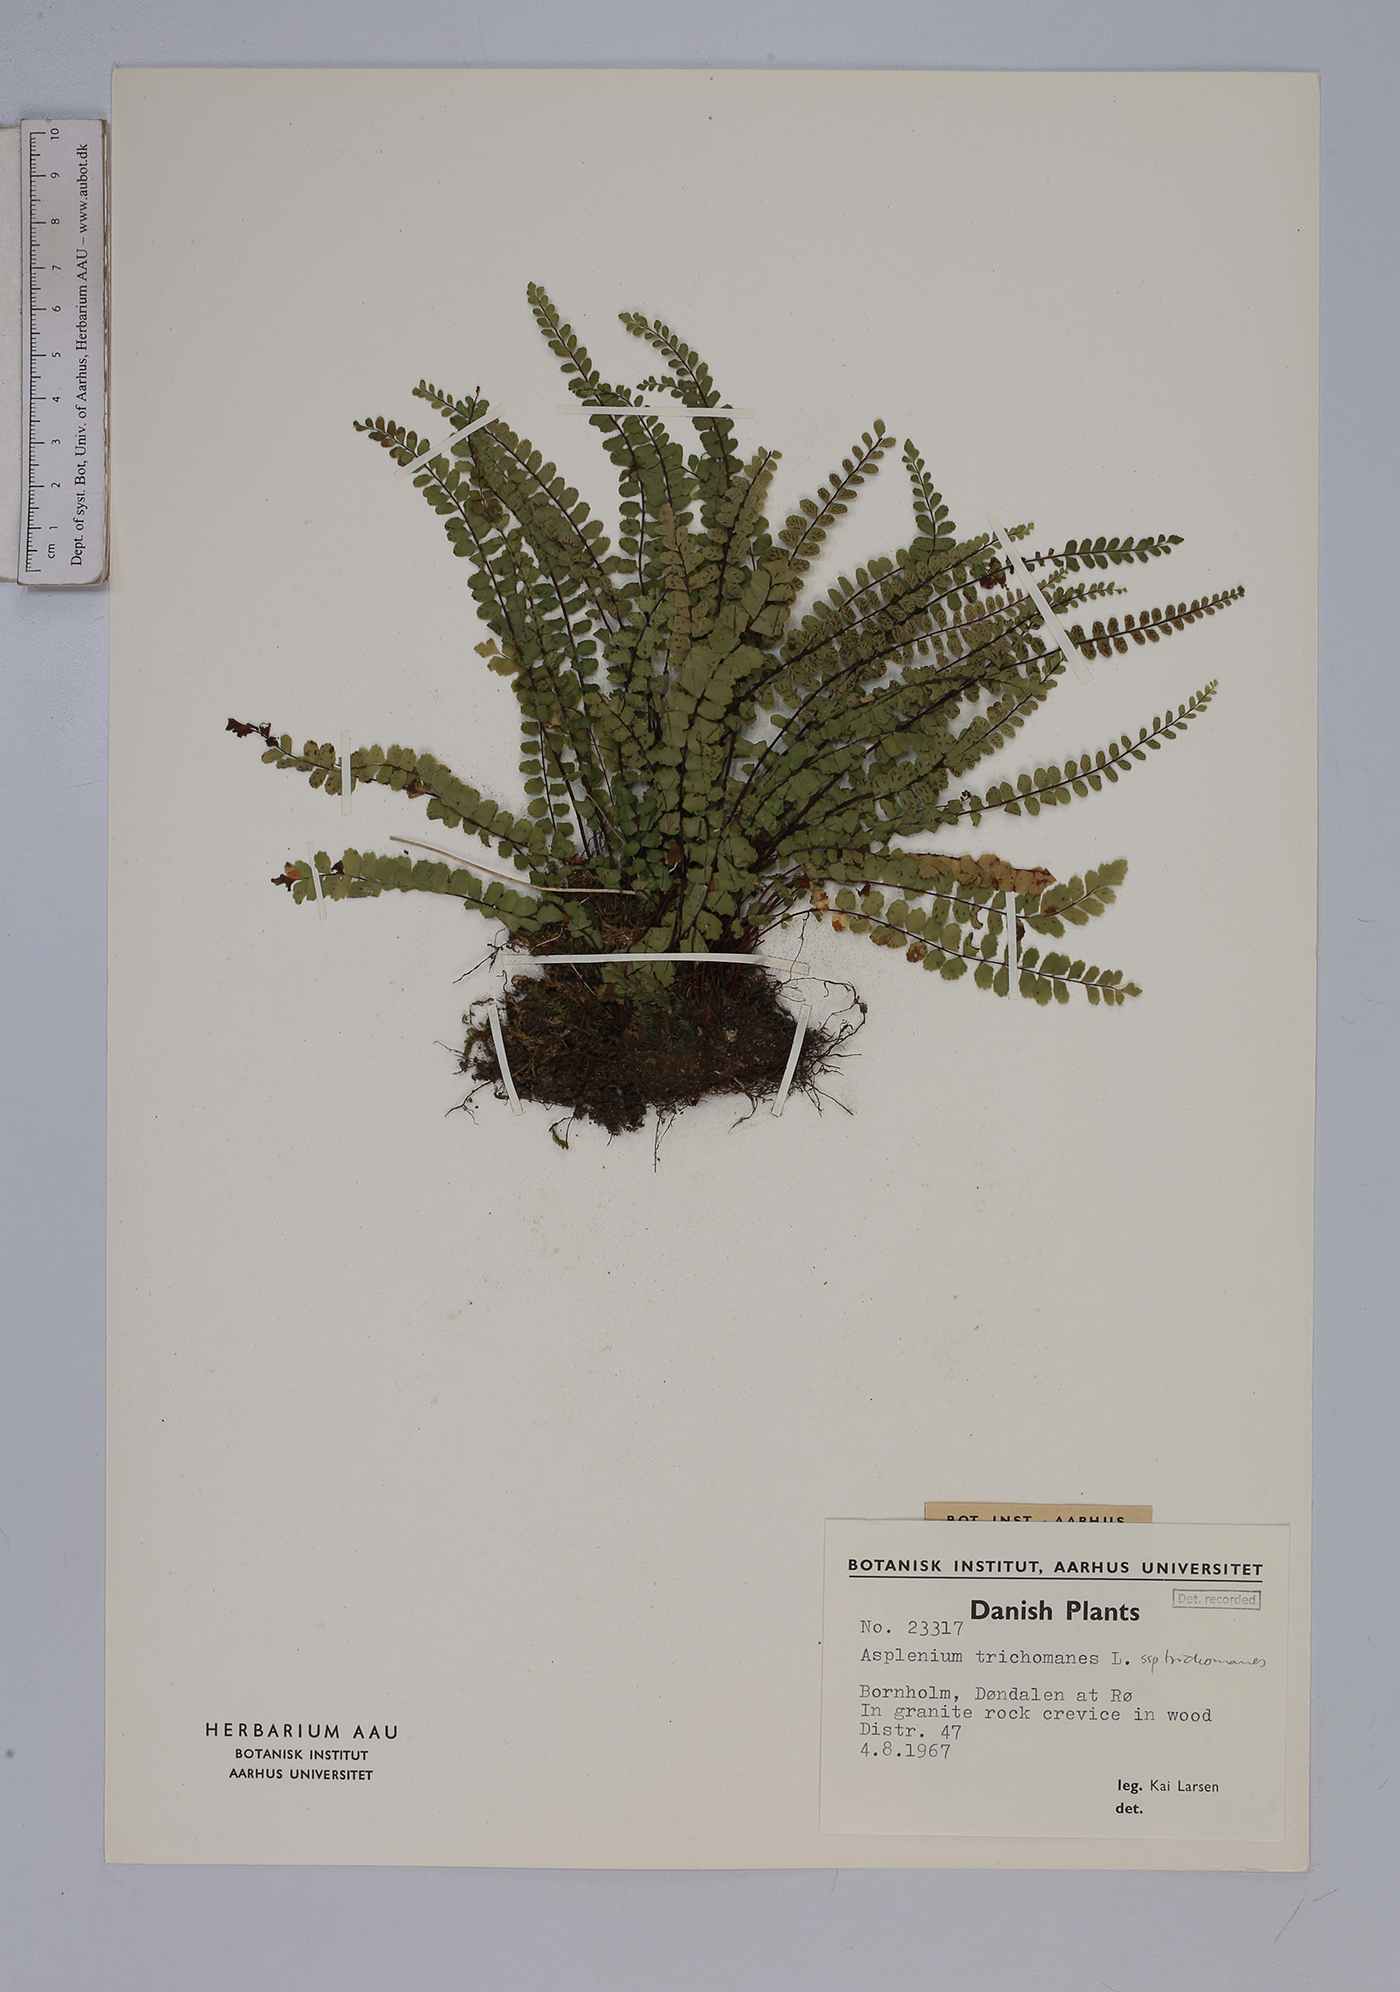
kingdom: Plantae
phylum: Tracheophyta
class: Polypodiopsida
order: Polypodiales
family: Aspleniaceae
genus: Asplenium
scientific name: Asplenium trichomanes
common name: Maidenhair spleenwort
